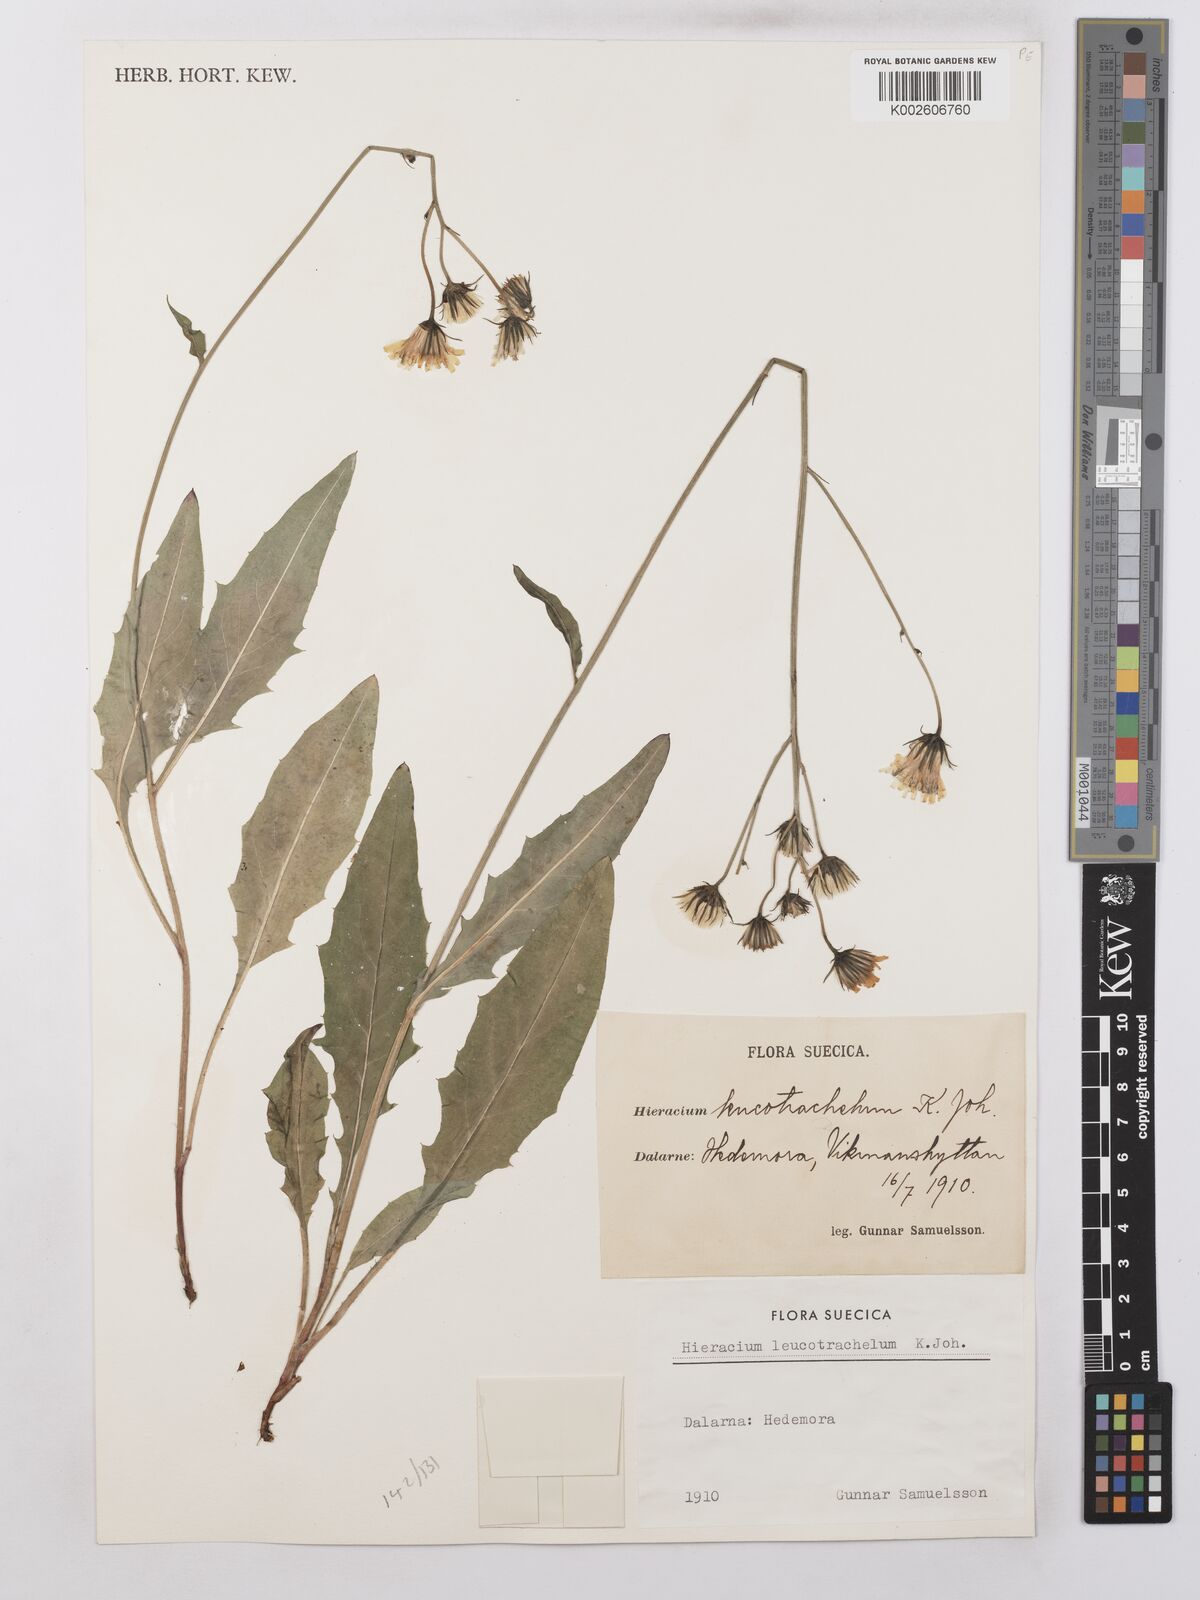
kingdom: Plantae
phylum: Tracheophyta
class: Magnoliopsida
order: Asterales
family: Asteraceae
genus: Hieracium
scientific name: Hieracium lachenalii
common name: Common hawkweed
